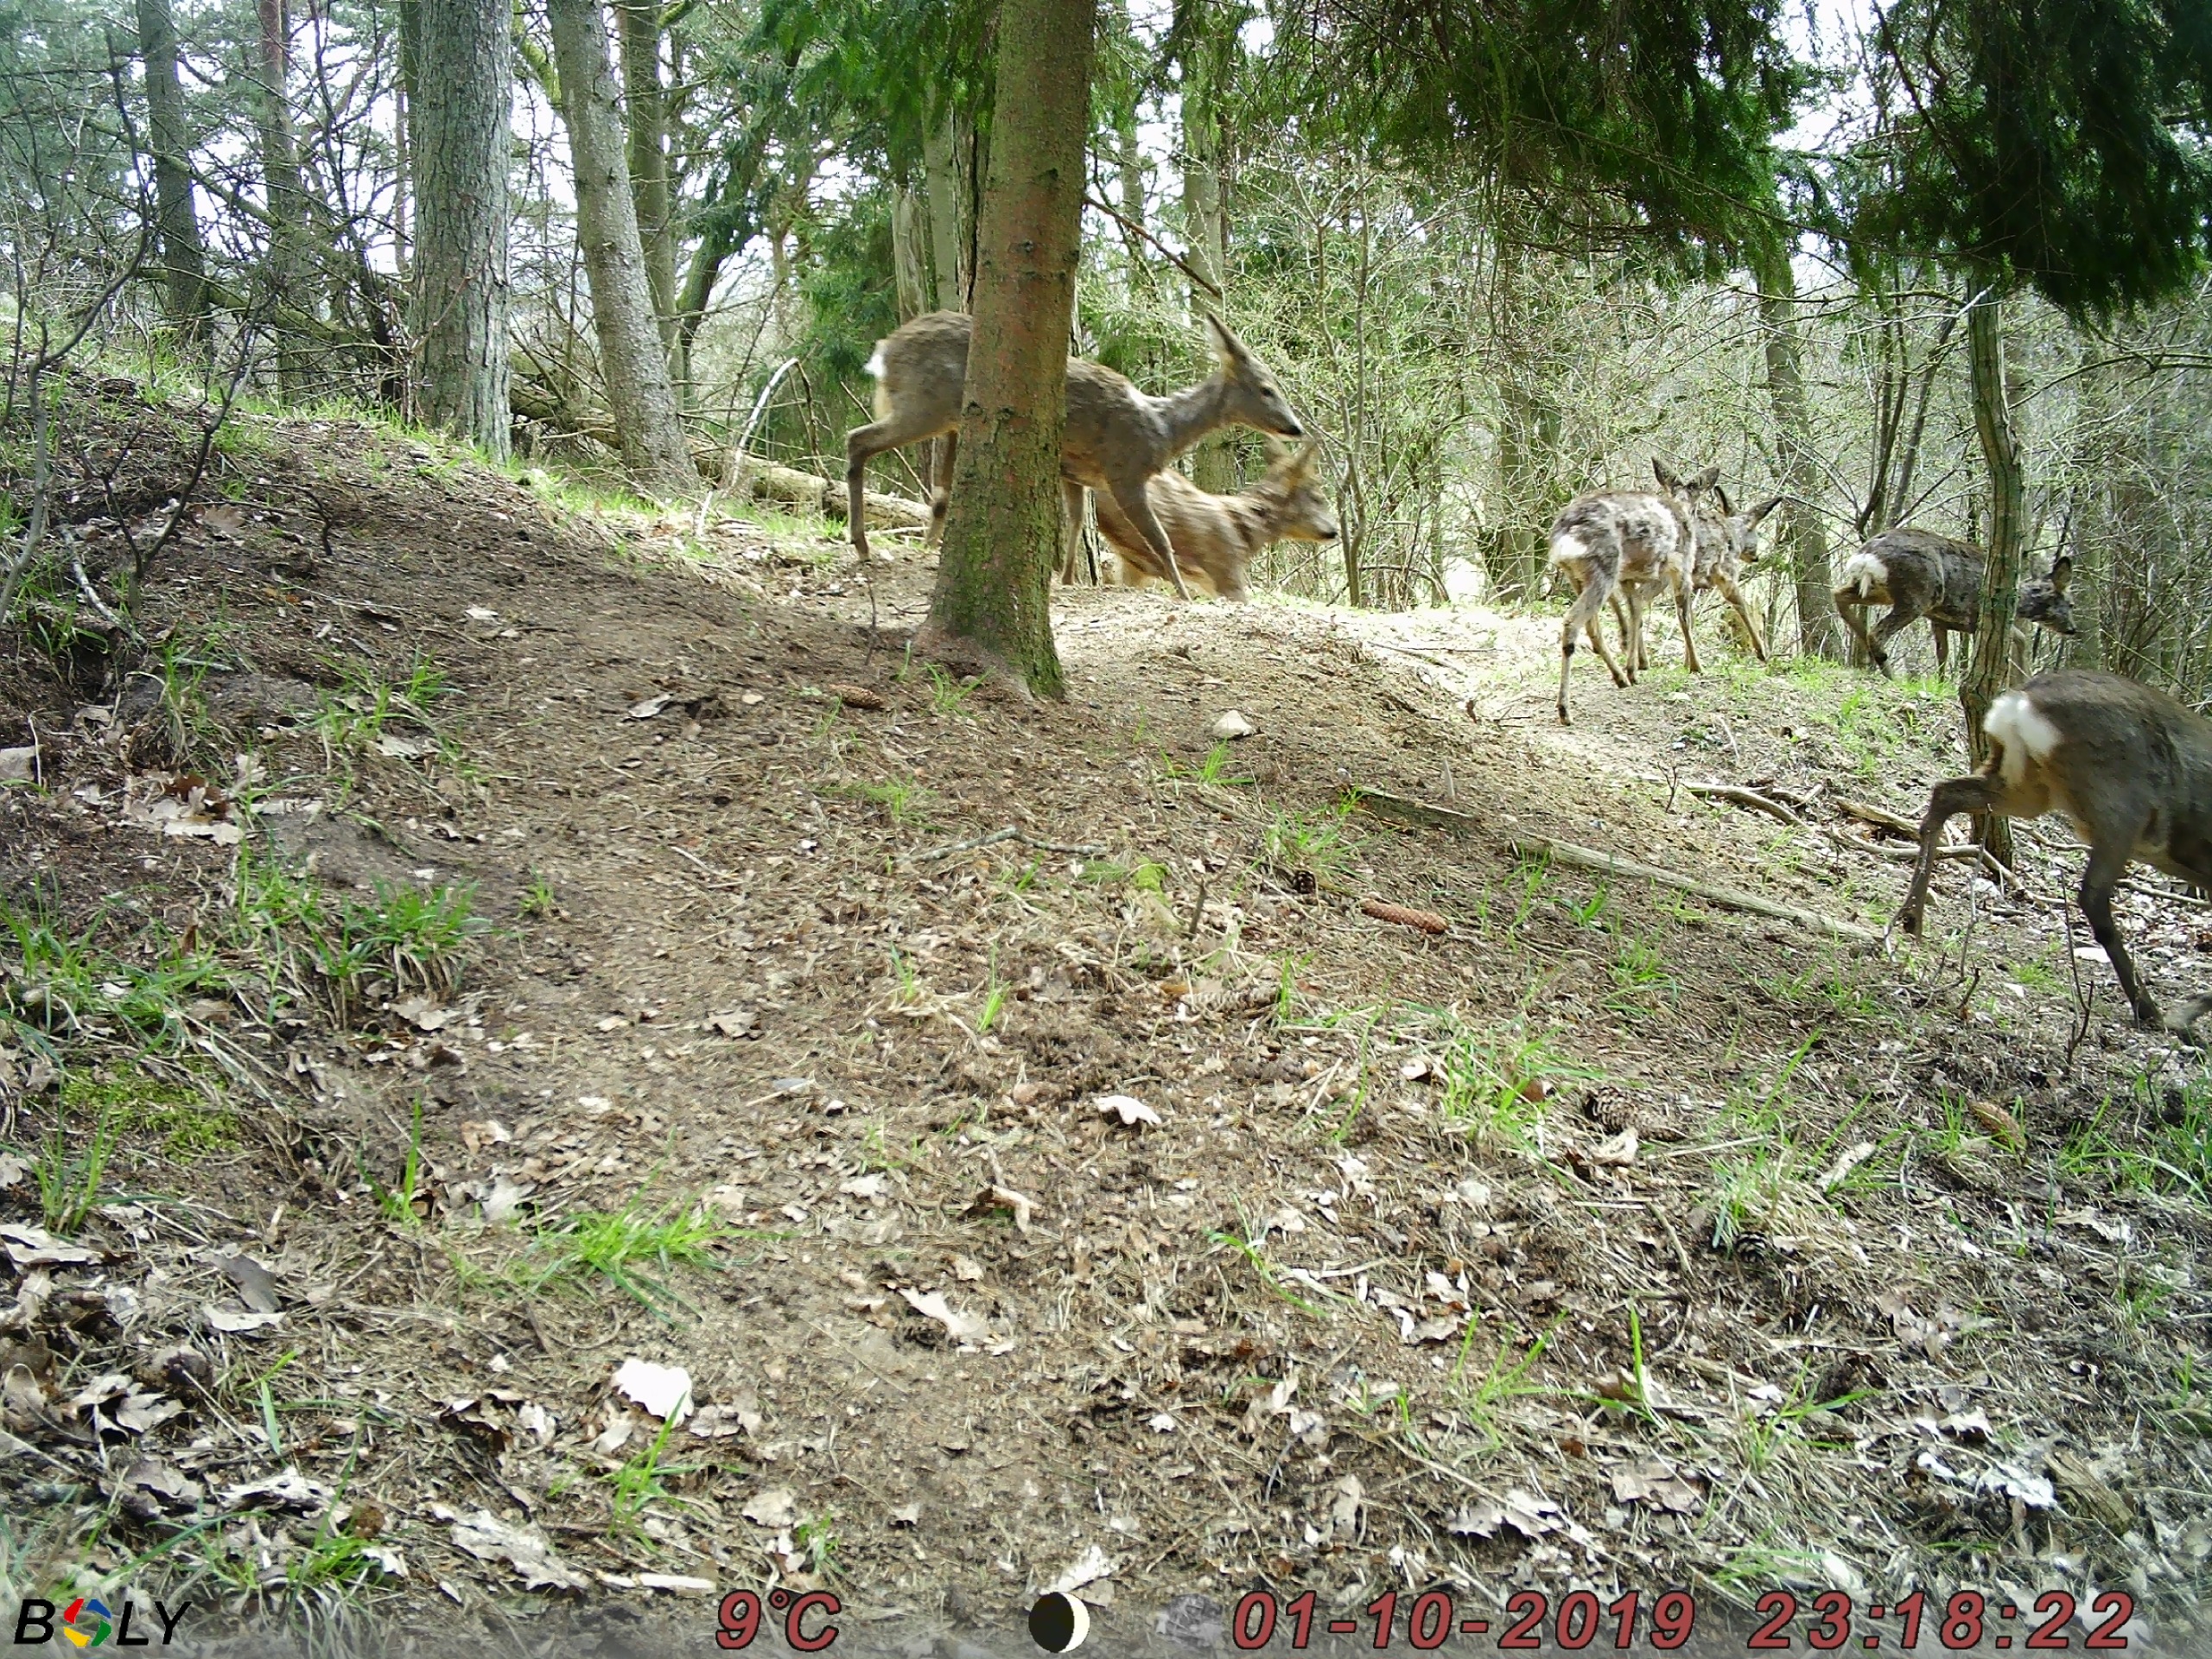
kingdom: Animalia
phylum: Chordata
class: Mammalia
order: Artiodactyla
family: Cervidae
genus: Capreolus
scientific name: Capreolus capreolus
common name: Rådyr
